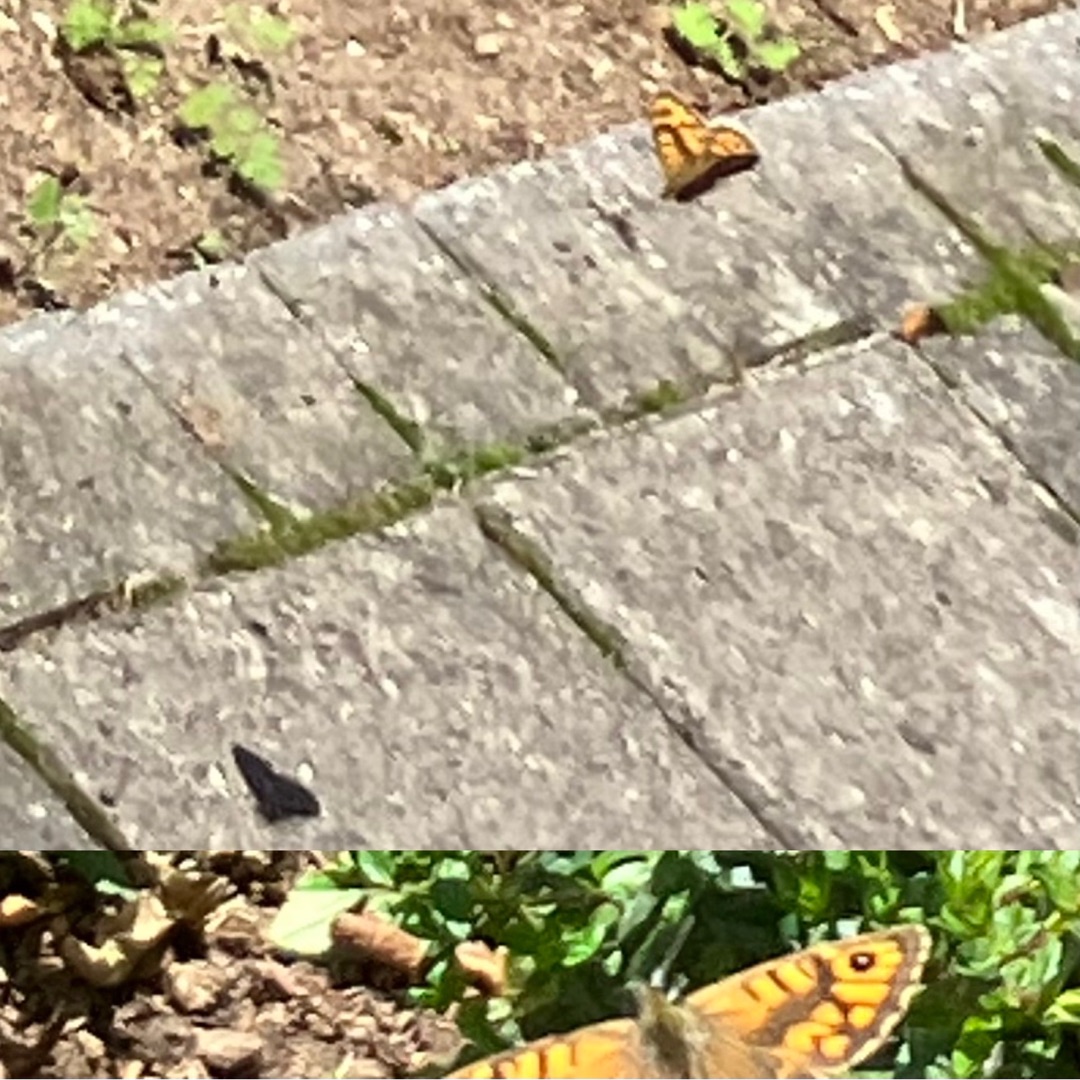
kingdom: Animalia
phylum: Arthropoda
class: Insecta
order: Lepidoptera
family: Nymphalidae
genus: Pararge
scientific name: Pararge Lasiommata megera
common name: Vejrandøje
